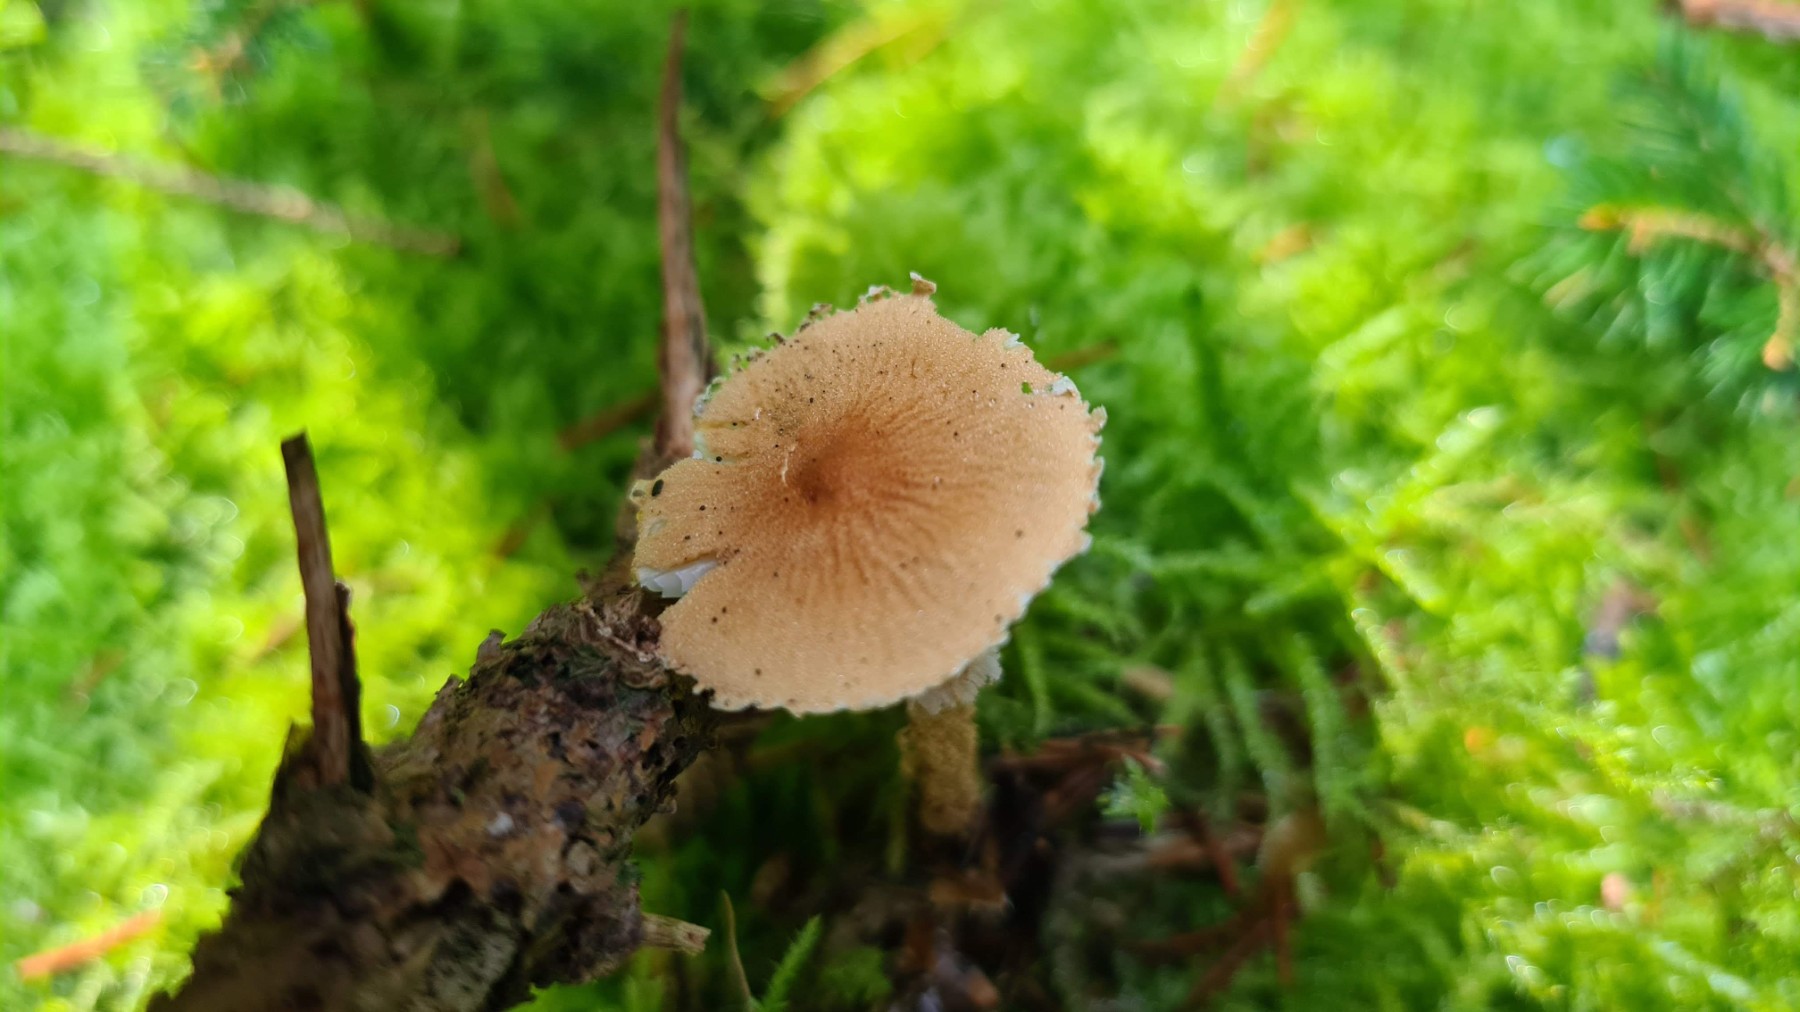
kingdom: Fungi
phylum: Basidiomycota
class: Agaricomycetes
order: Agaricales
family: Tricholomataceae
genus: Cystoderma
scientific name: Cystoderma amianthinum
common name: okkergul grynhat
